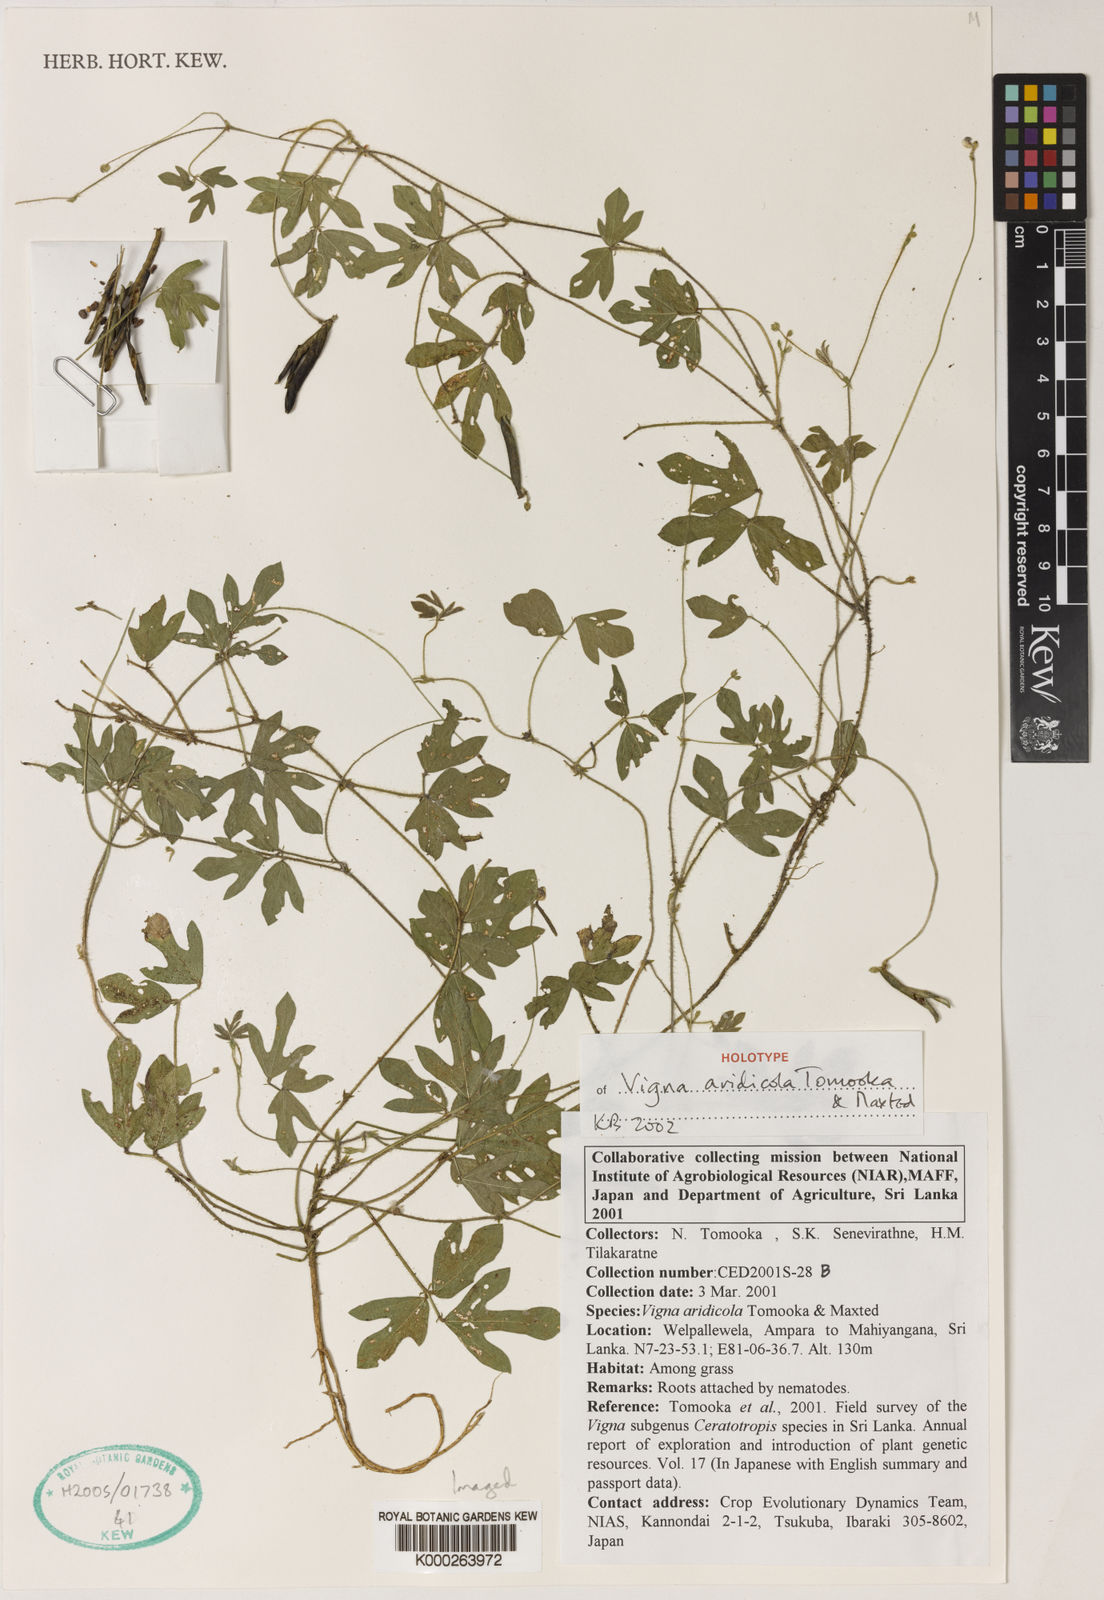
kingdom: Plantae
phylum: Tracheophyta
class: Magnoliopsida
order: Fabales
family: Fabaceae
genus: Vigna
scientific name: Vigna
